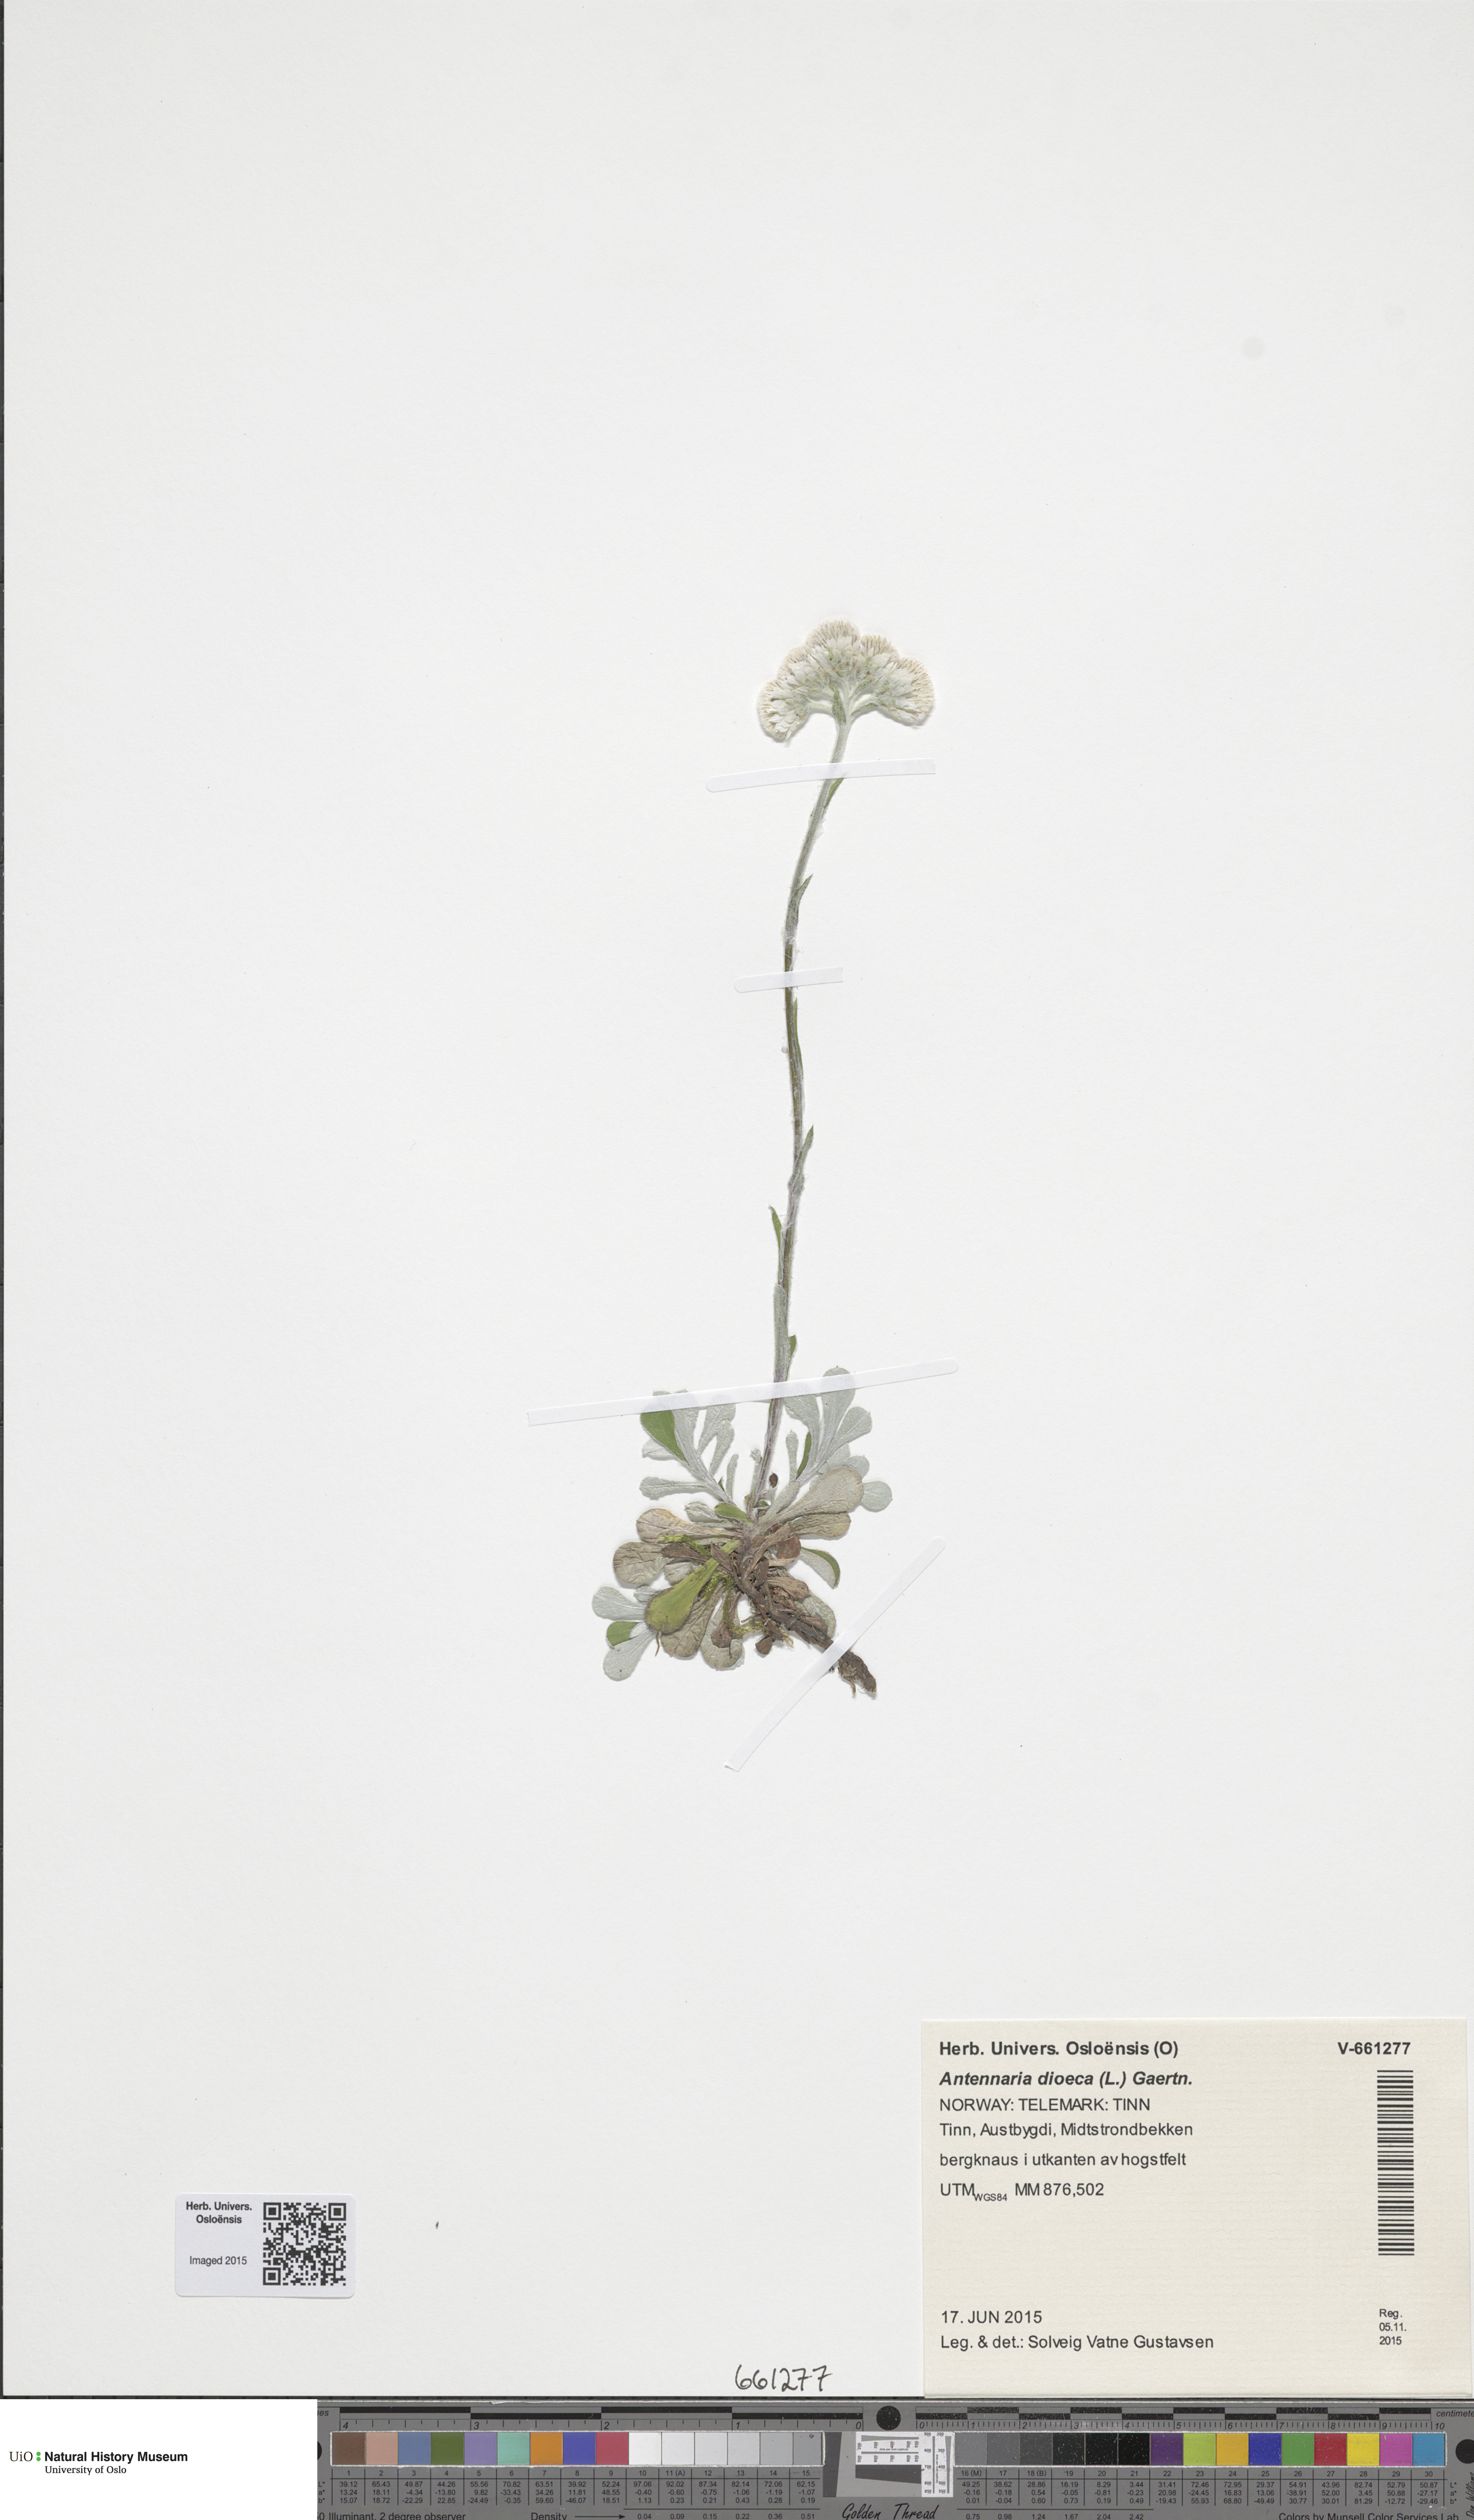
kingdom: Plantae
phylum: Tracheophyta
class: Magnoliopsida
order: Asterales
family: Asteraceae
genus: Antennaria
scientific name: Antennaria dioica
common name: Mountain everlasting
